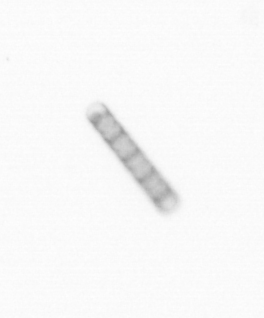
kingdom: Chromista
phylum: Ochrophyta
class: Bacillariophyceae
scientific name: Bacillariophyceae
